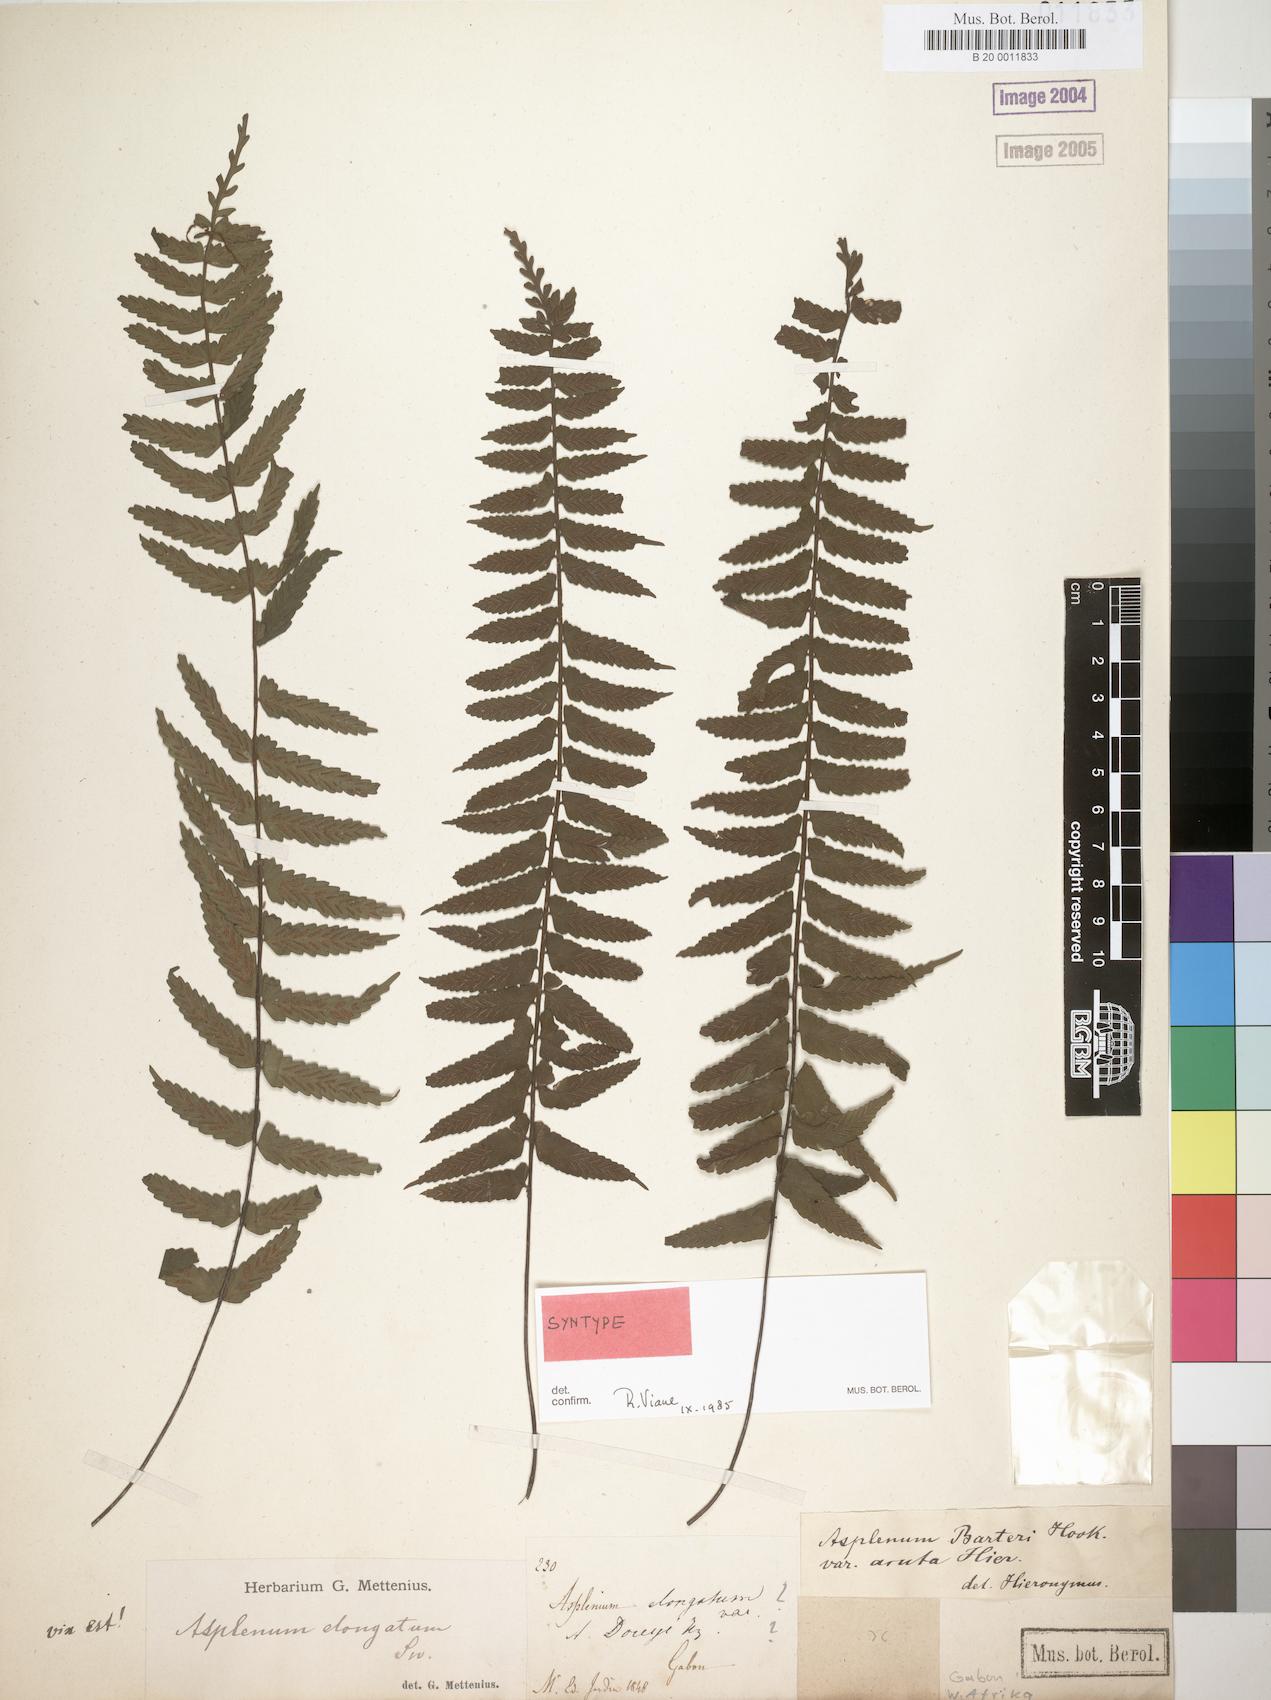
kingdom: Plantae
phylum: Tracheophyta
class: Polypodiopsida
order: Polypodiales
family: Aspleniaceae
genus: Asplenium
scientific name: Asplenium barteri
